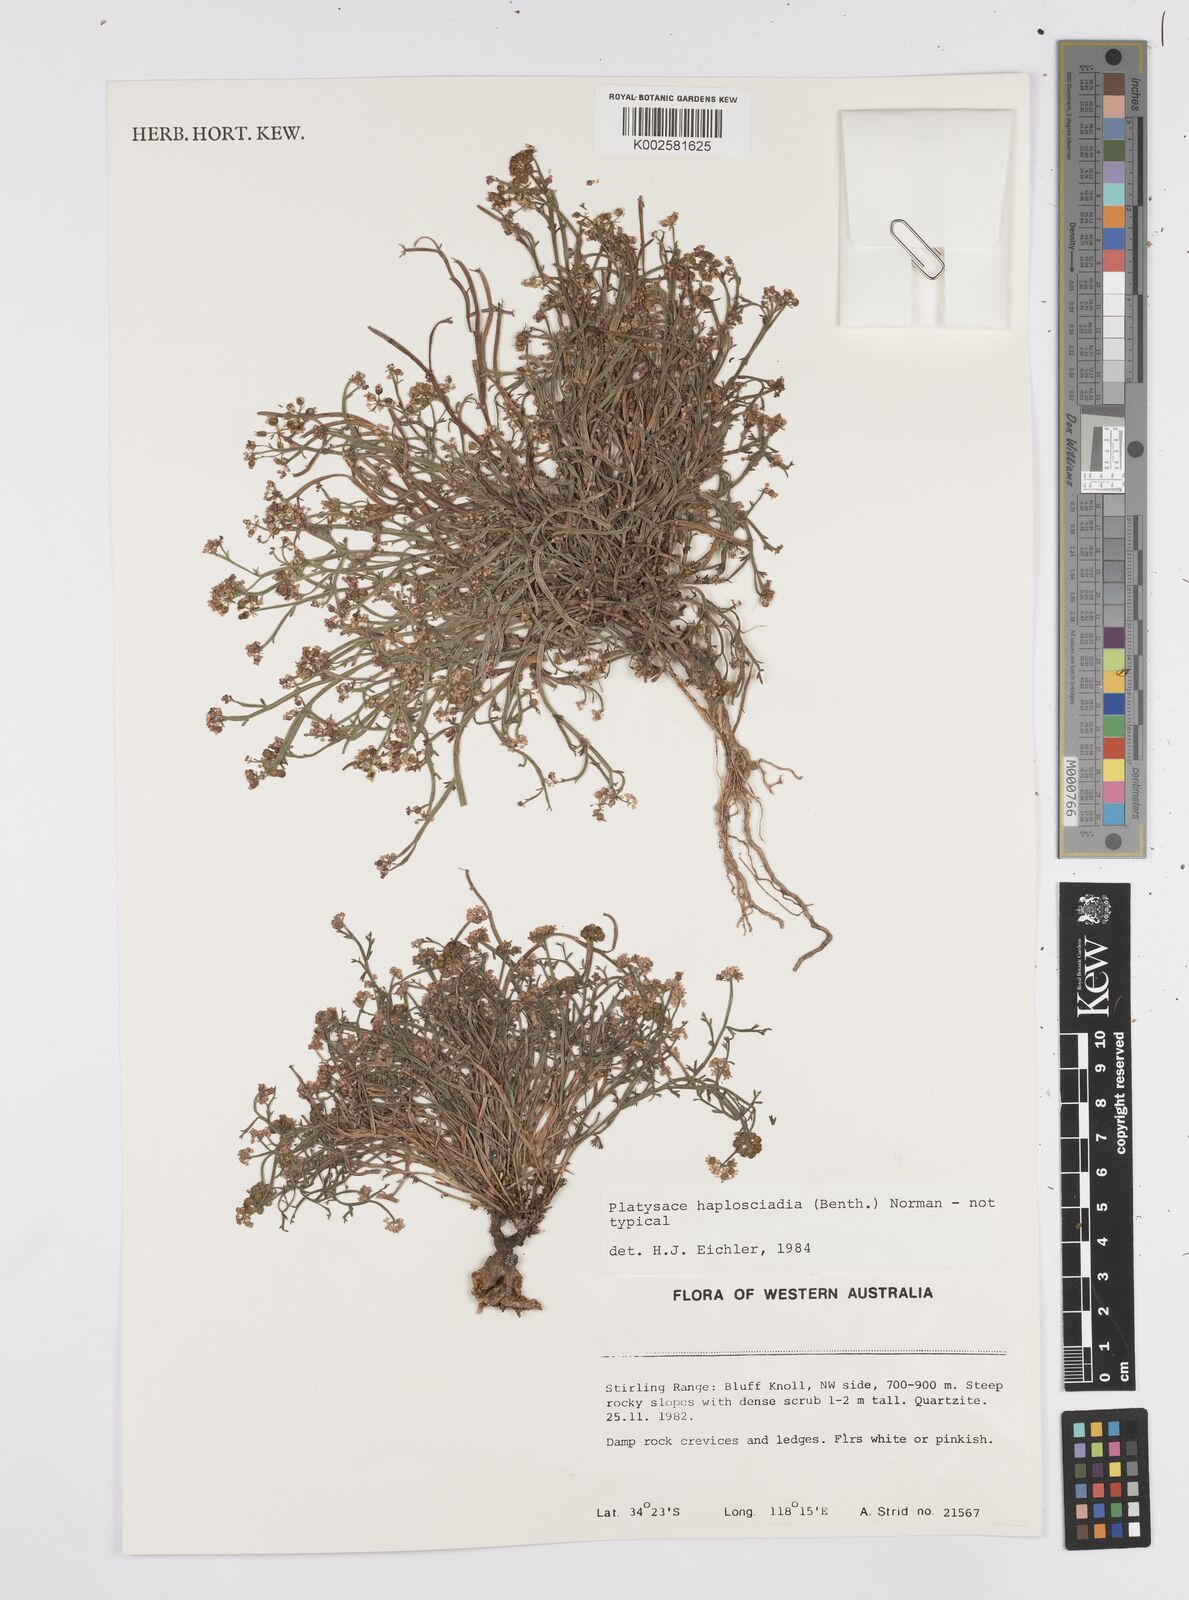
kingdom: Plantae
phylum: Tracheophyta
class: Magnoliopsida
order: Apiales
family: Apiaceae
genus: Platysace
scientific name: Platysace haplosciadia
